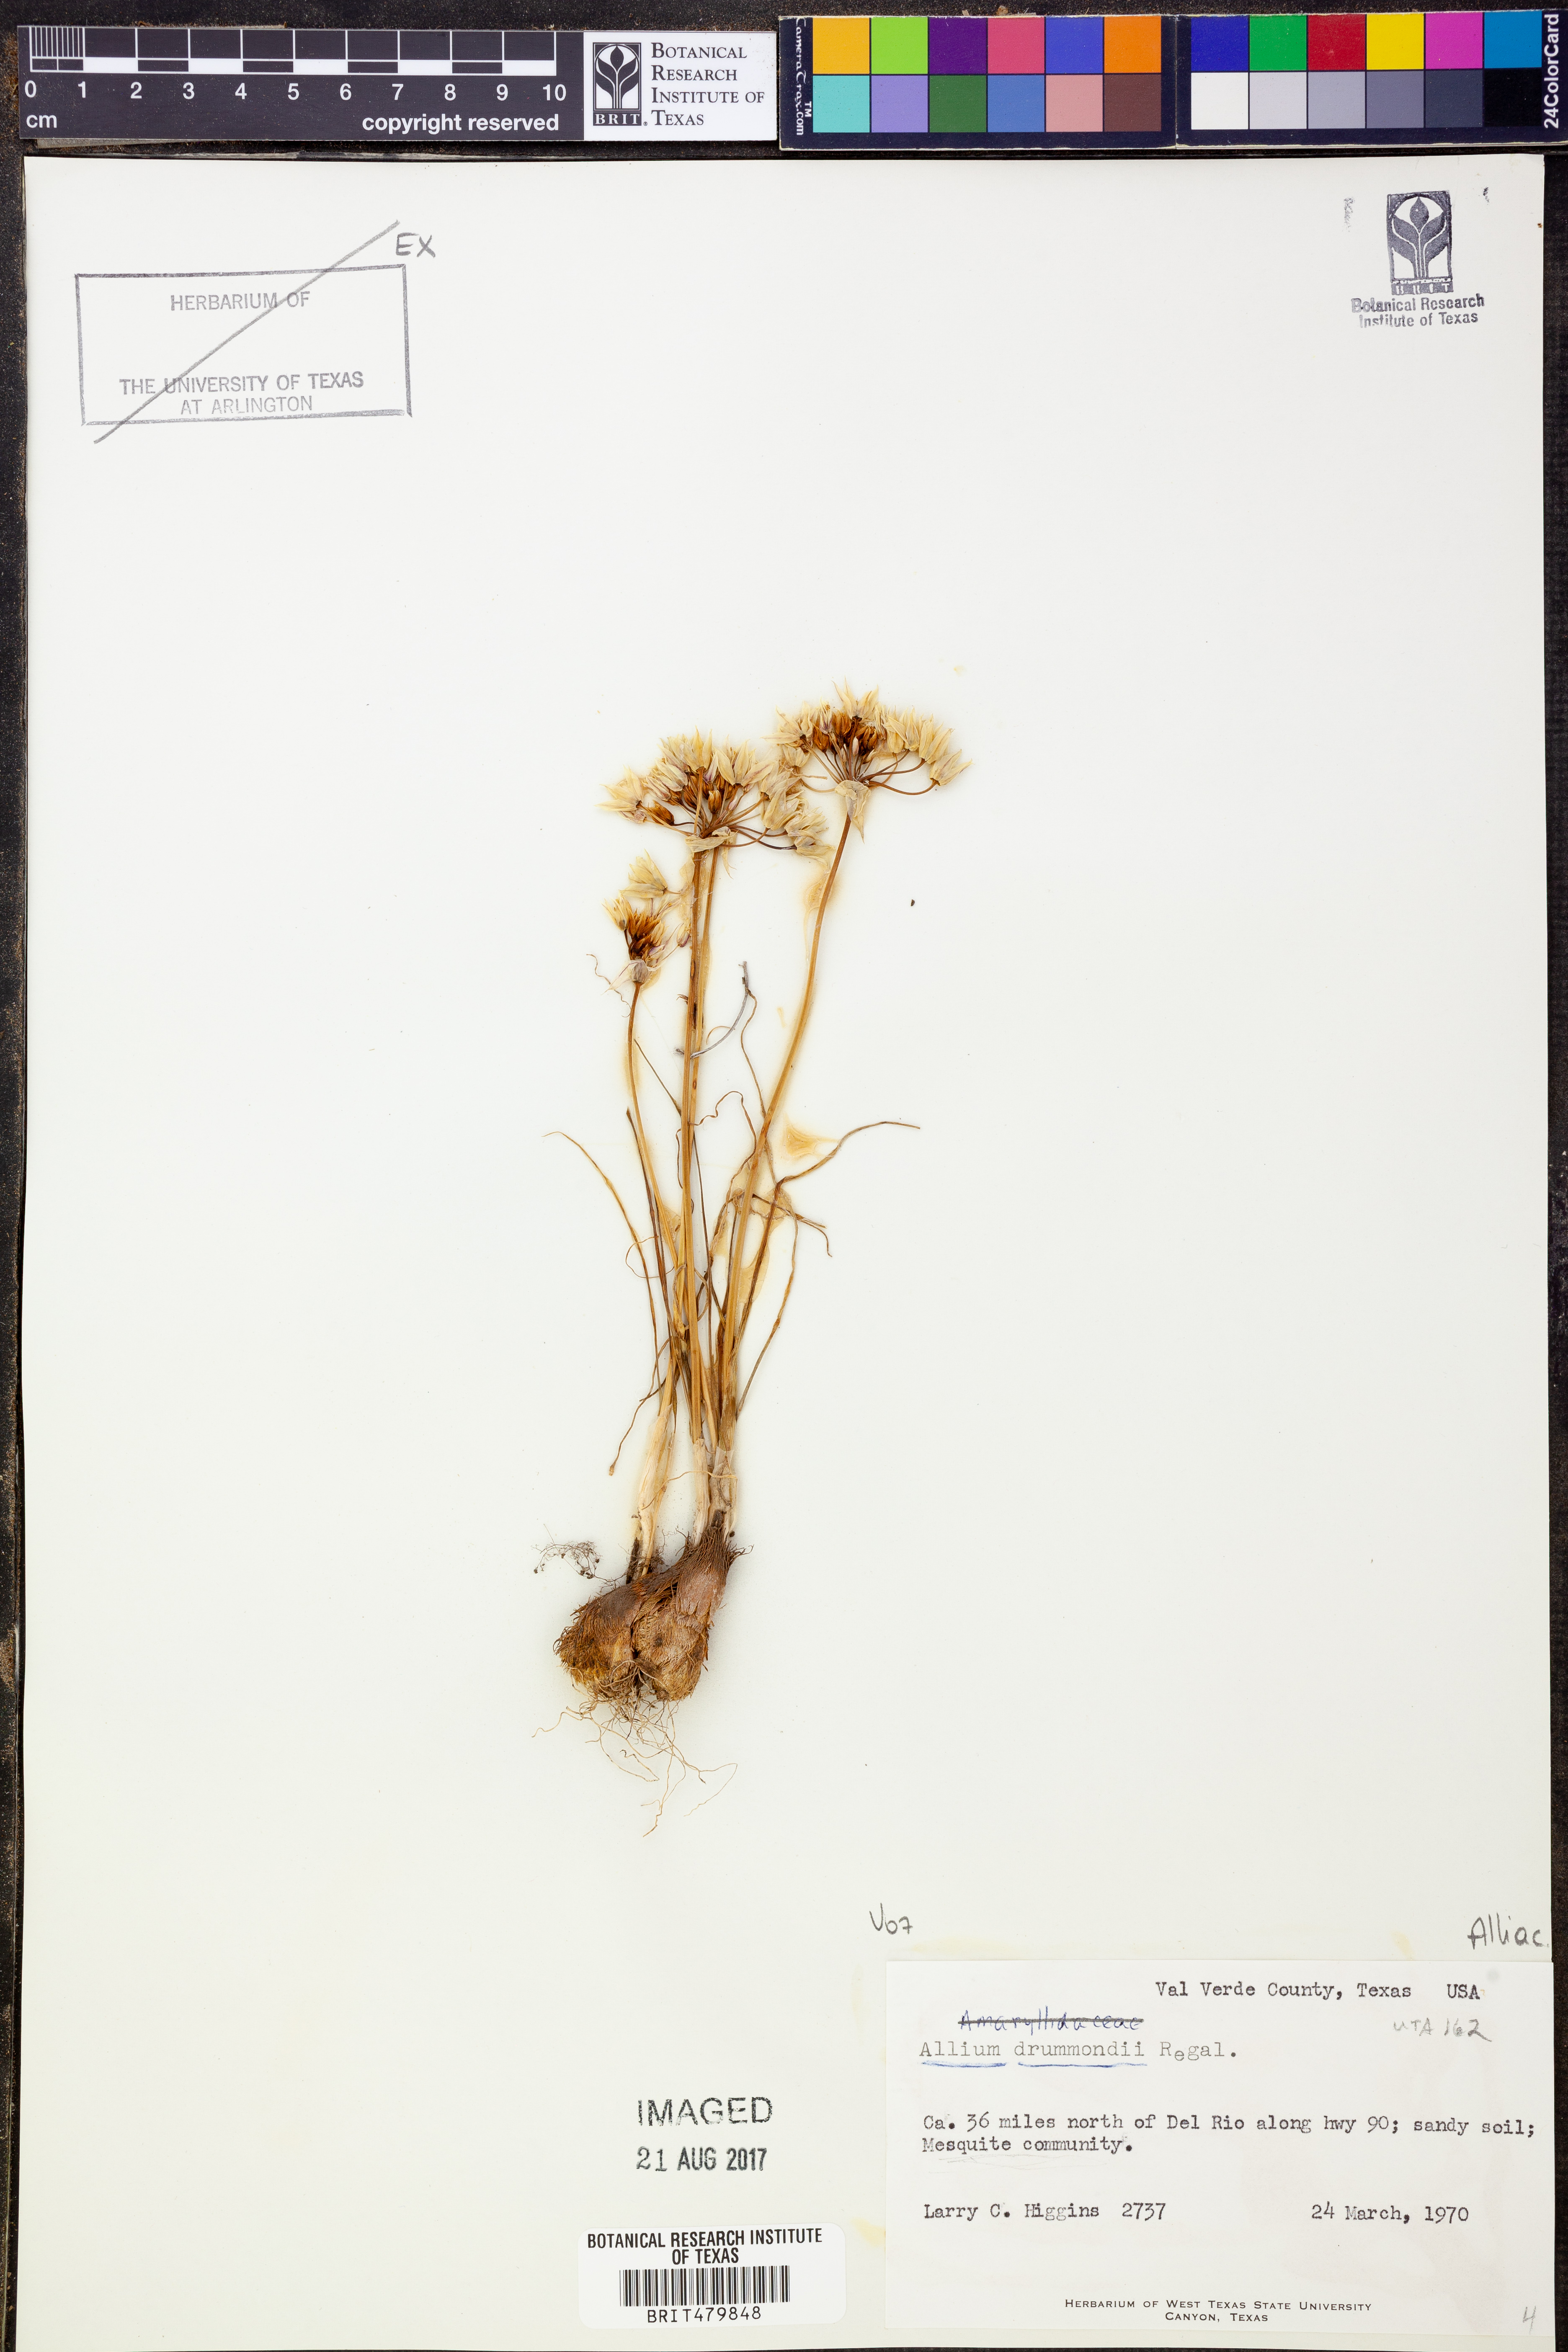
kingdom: Plantae
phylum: Tracheophyta
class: Liliopsida
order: Asparagales
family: Amaryllidaceae
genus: Allium
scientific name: Allium drummondii
